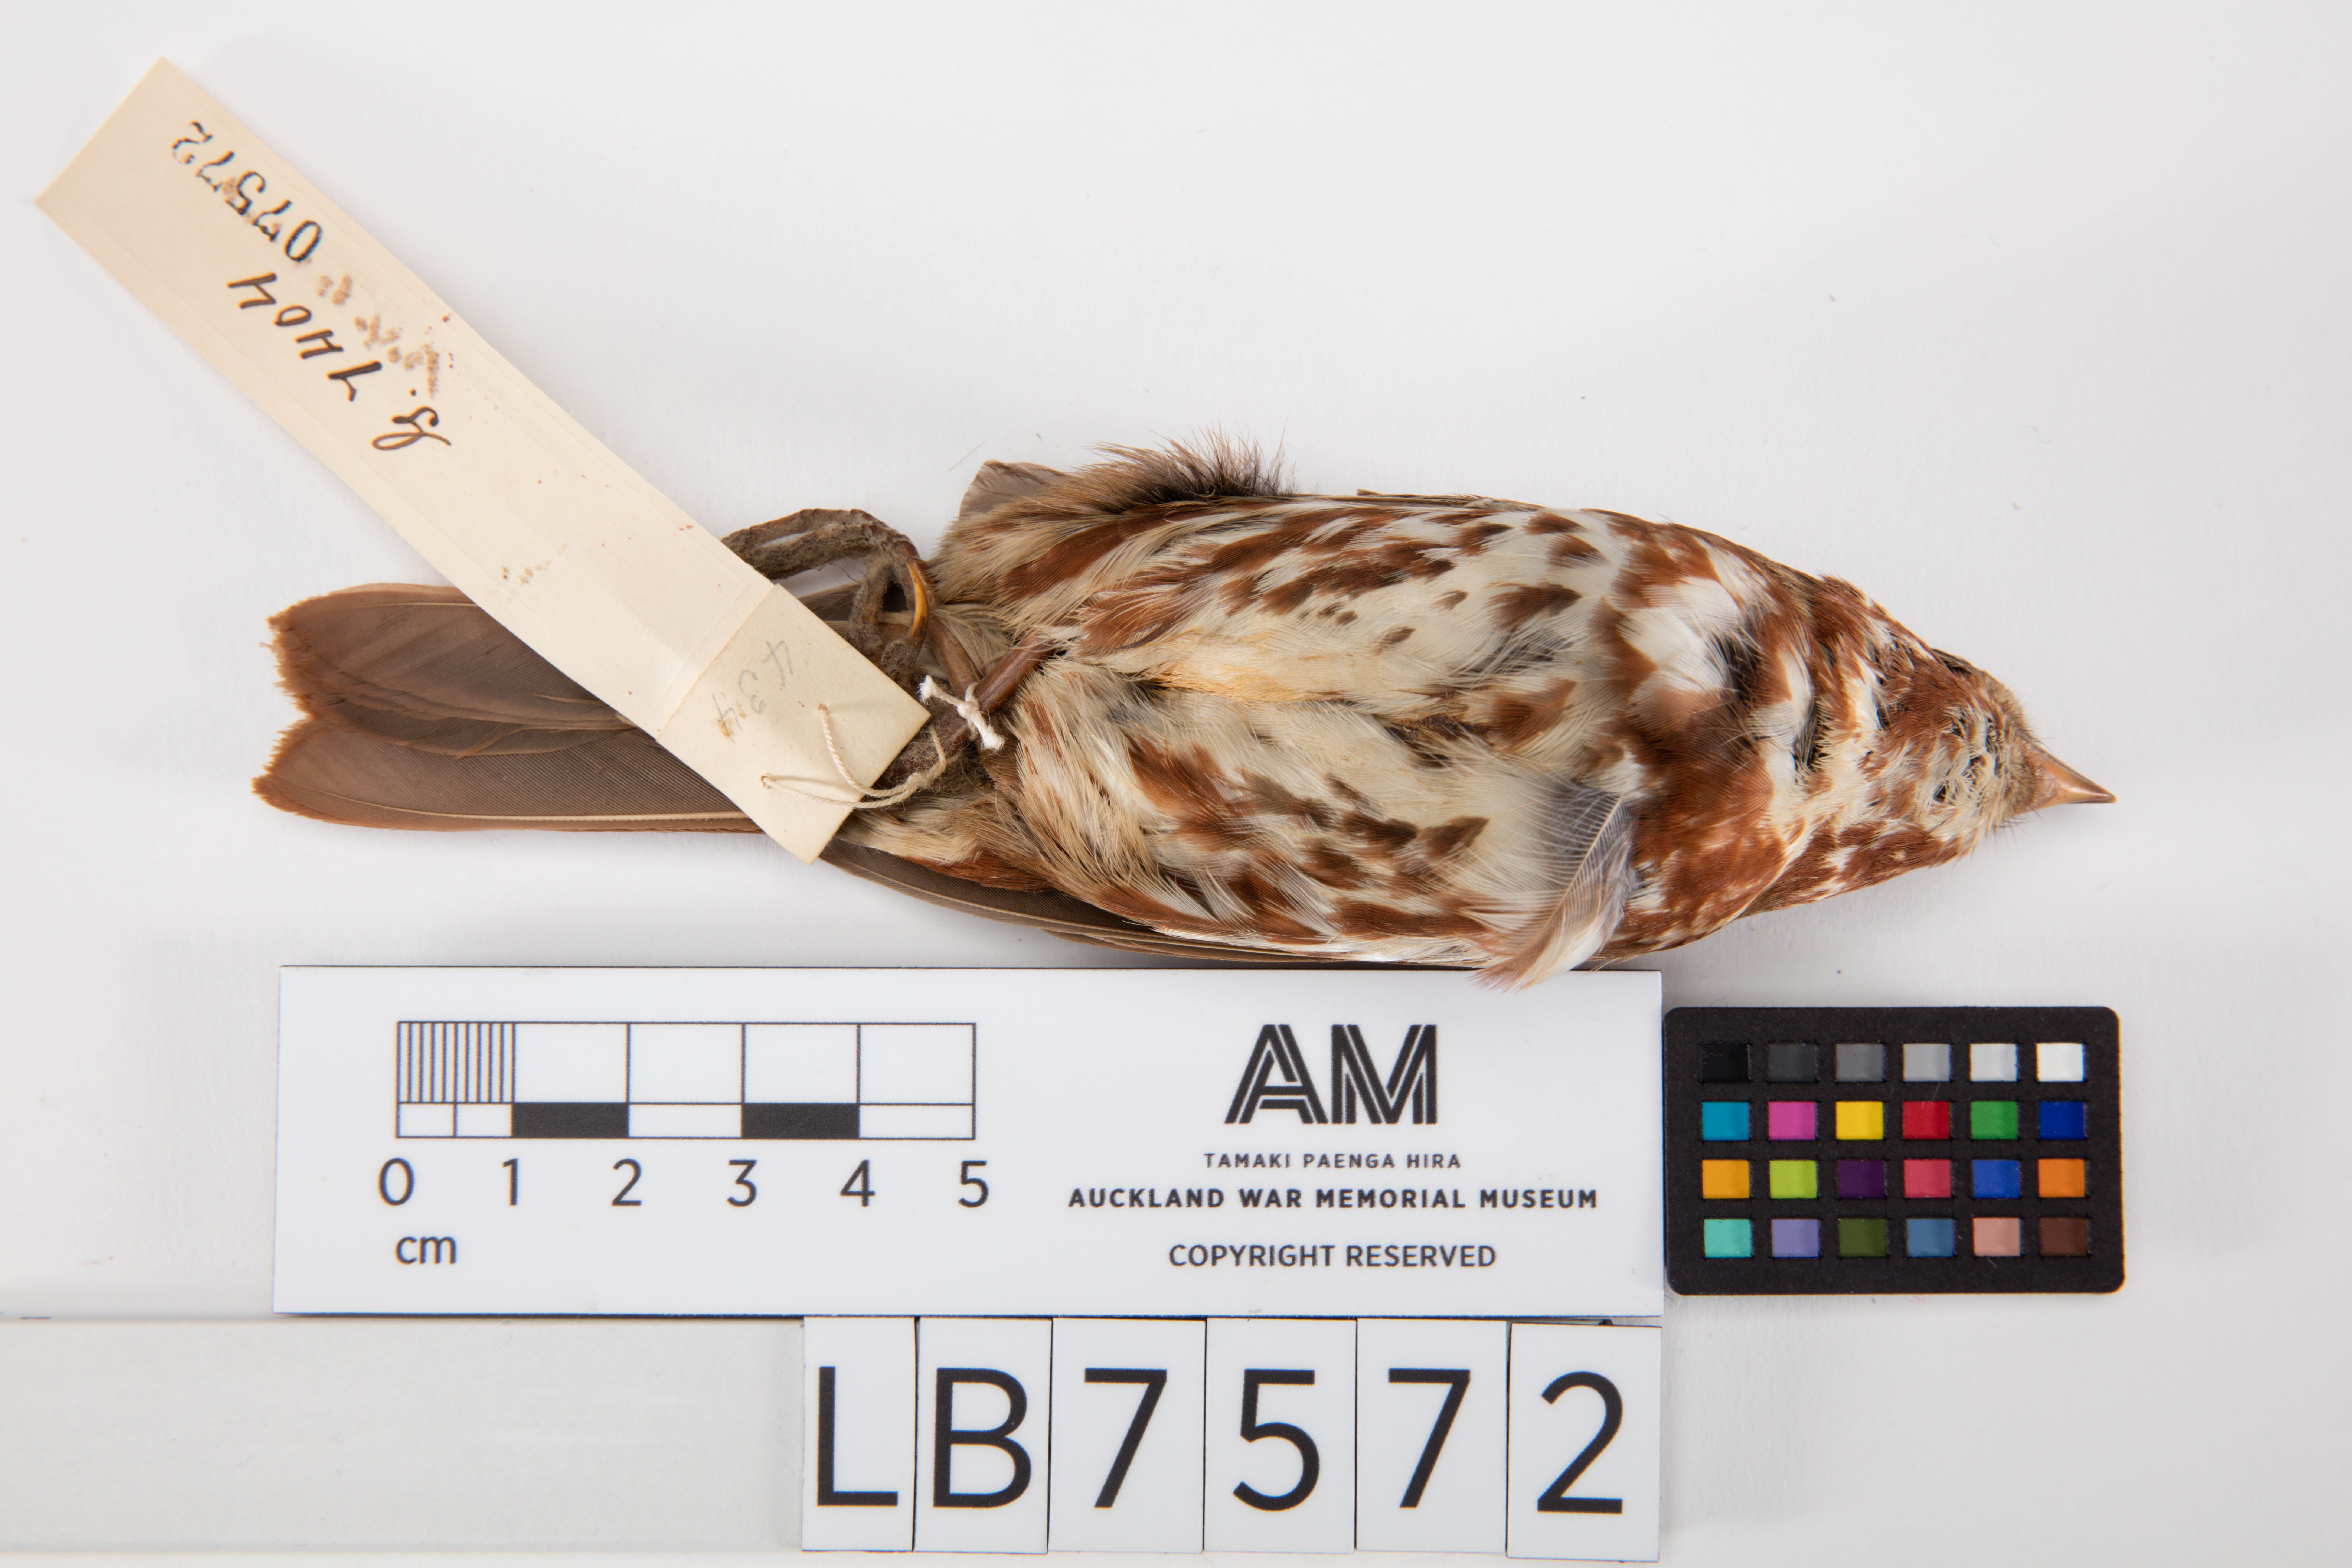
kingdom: Animalia
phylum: Chordata
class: Aves
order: Passeriformes
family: Passerellidae
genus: Passerella
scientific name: Passerella iliaca
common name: Fox sparrow
